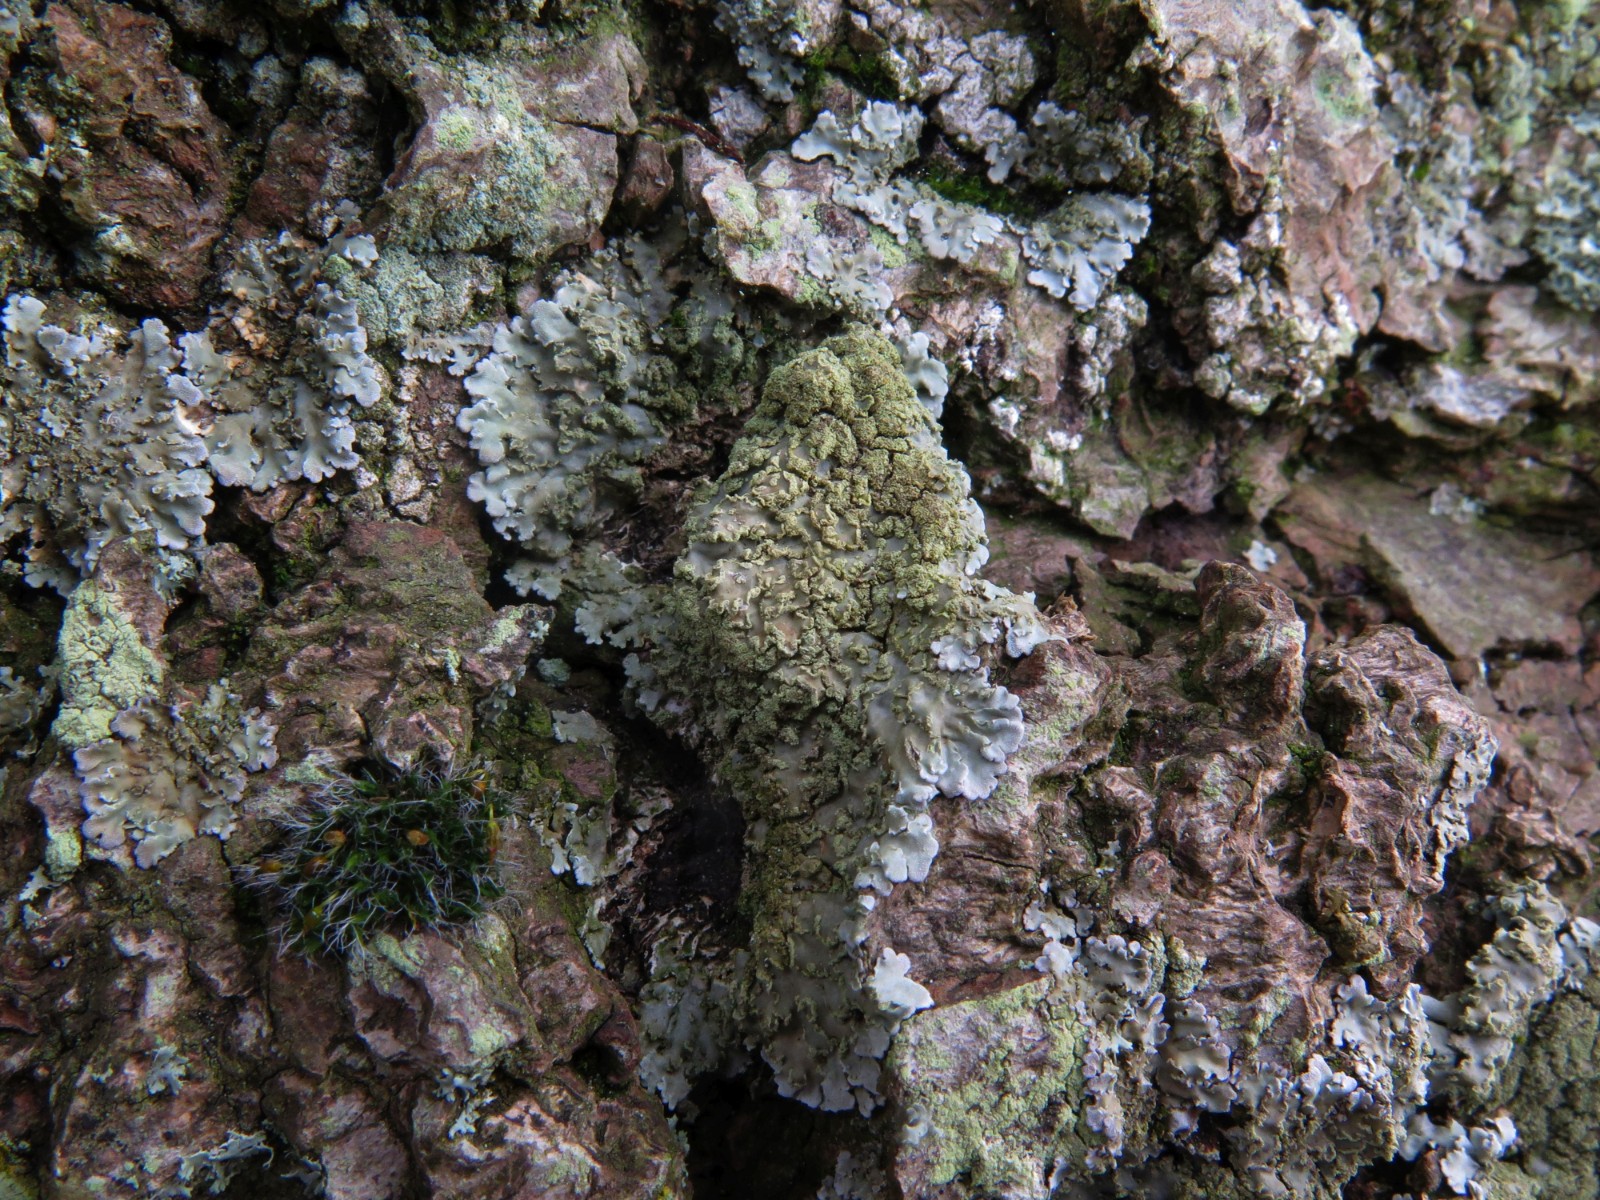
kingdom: Fungi
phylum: Ascomycota
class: Lecanoromycetes
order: Caliciales
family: Physciaceae
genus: Physconia
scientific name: Physconia perisidiosa
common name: liden dugrosetlav
